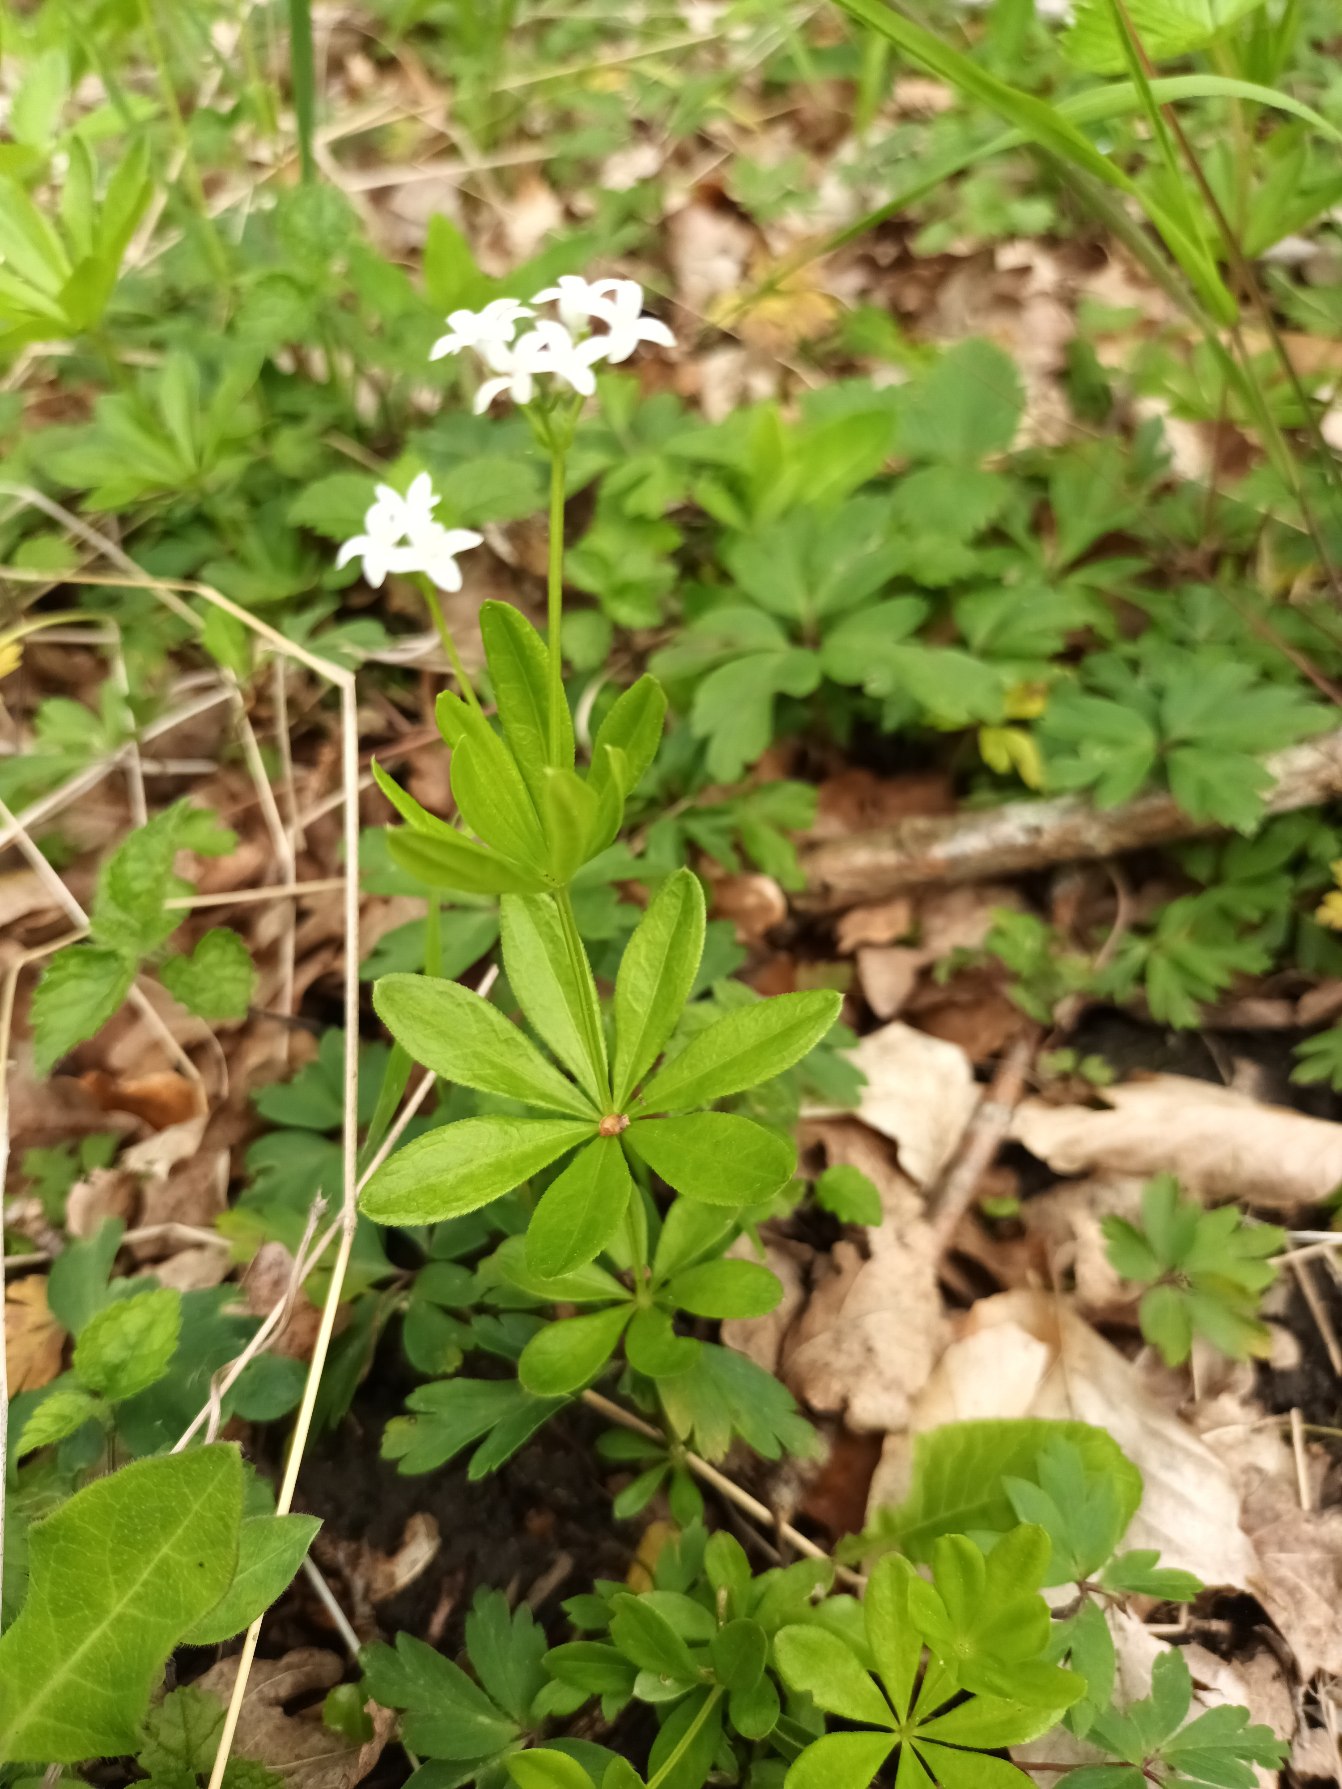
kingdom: Plantae
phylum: Tracheophyta
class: Magnoliopsida
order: Gentianales
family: Rubiaceae
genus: Galium
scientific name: Galium odoratum
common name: Skovmærke
